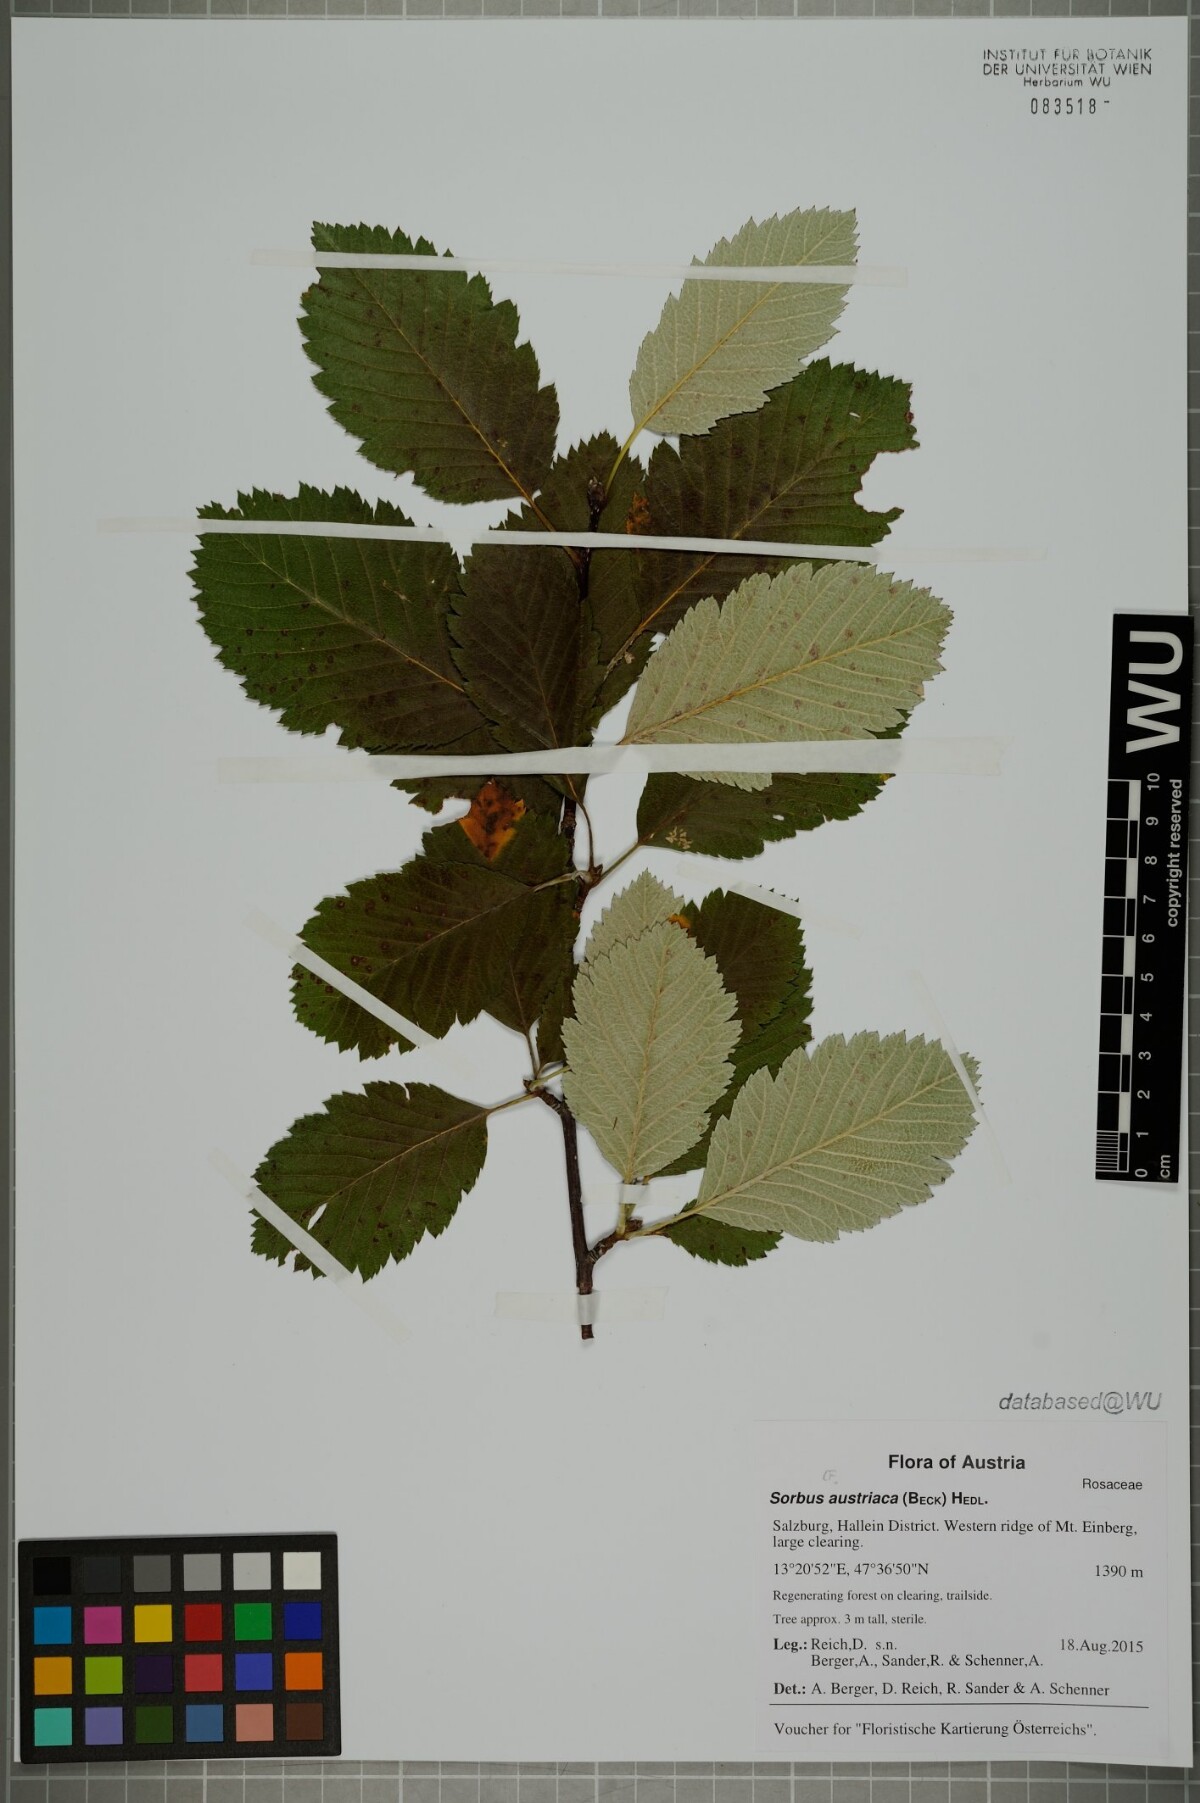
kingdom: Plantae
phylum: Tracheophyta
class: Magnoliopsida
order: Rosales
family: Rosaceae
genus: Hedlundia
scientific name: Hedlundia austriaca
